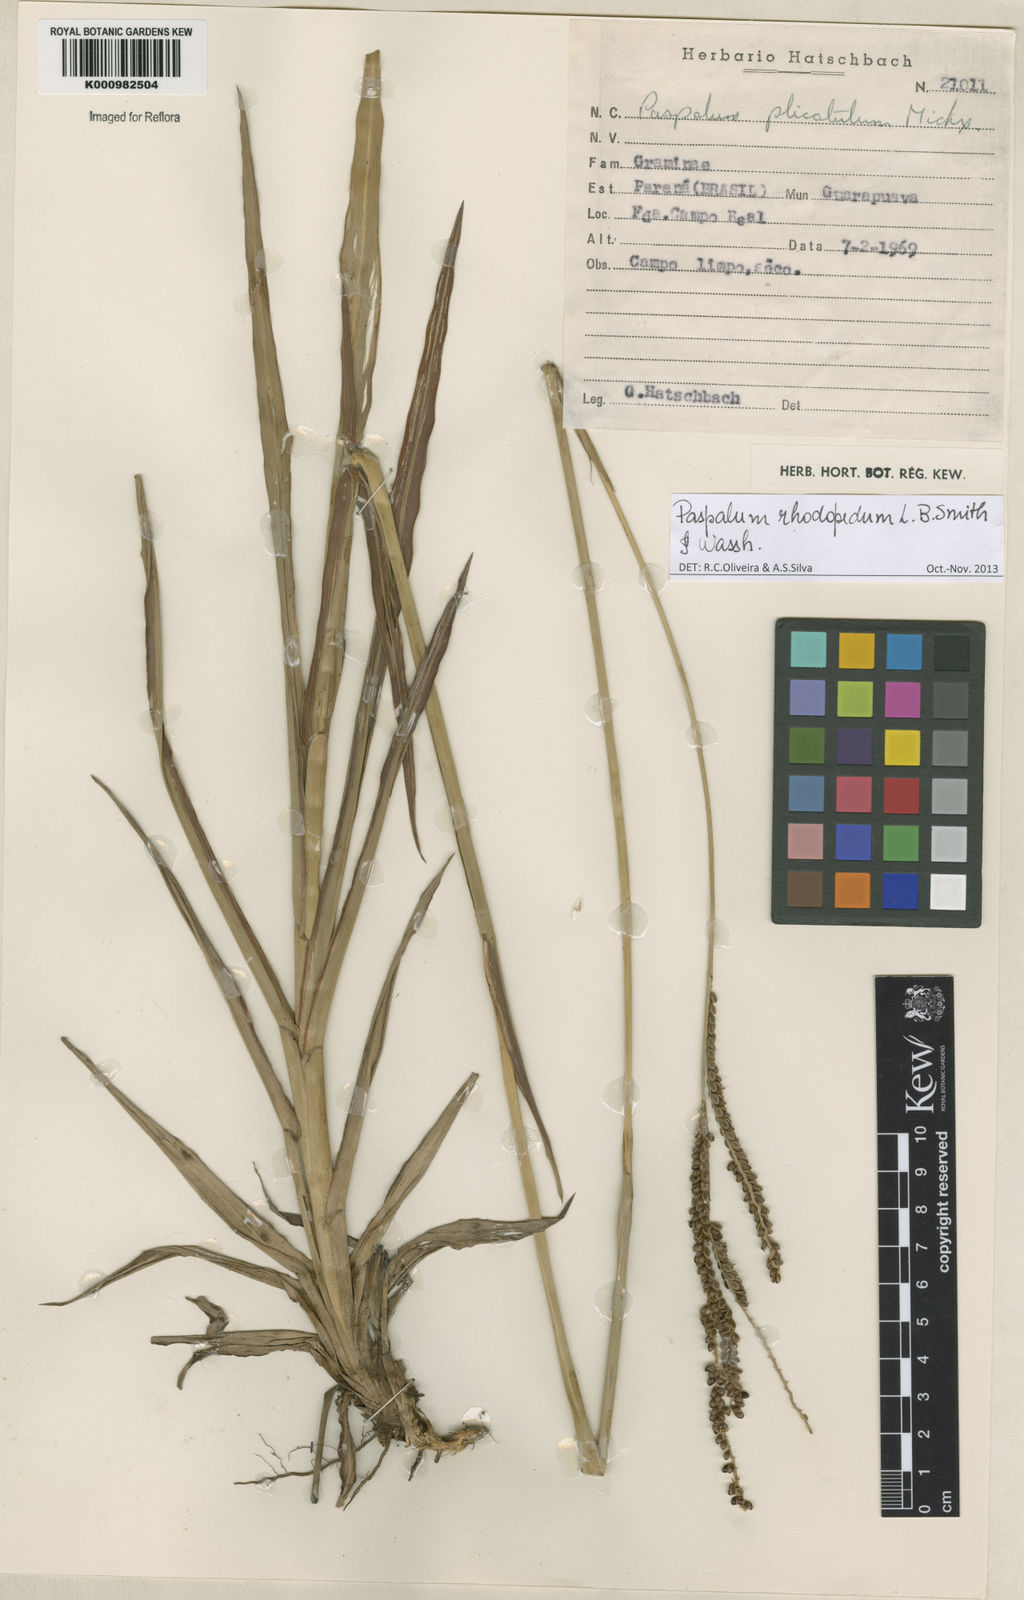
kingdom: Plantae
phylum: Tracheophyta
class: Liliopsida
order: Poales
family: Poaceae
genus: Paspalum
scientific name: Paspalum guenoarum
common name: Wintergreen paspalum
